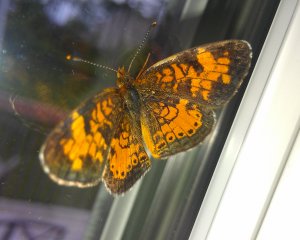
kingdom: Animalia
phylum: Arthropoda
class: Insecta
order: Lepidoptera
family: Nymphalidae
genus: Phyciodes
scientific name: Phyciodes tharos
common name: Northern Crescent
